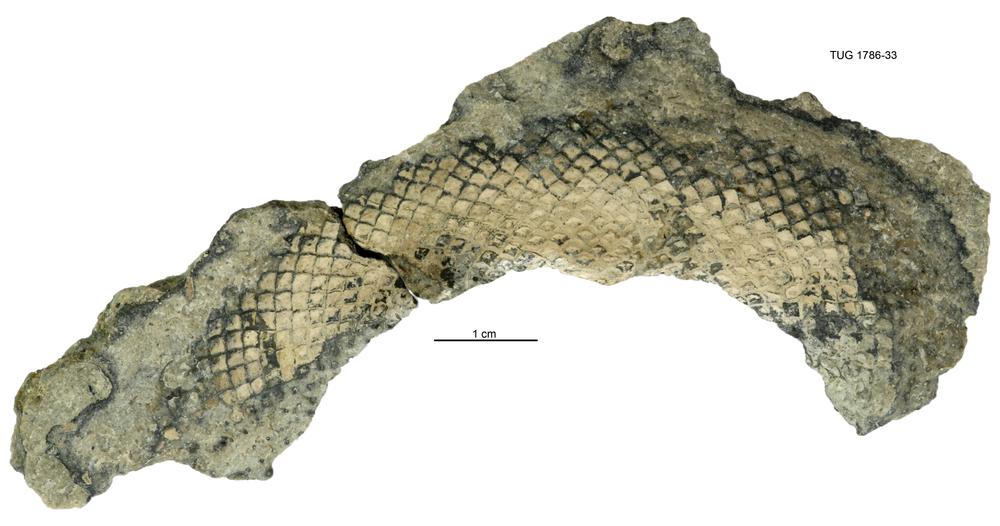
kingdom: Plantae
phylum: Chlorophyta
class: Chlorophyceae
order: Receptaculitales
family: Receptaculitaceae
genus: Receptaculites
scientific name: Receptaculites
